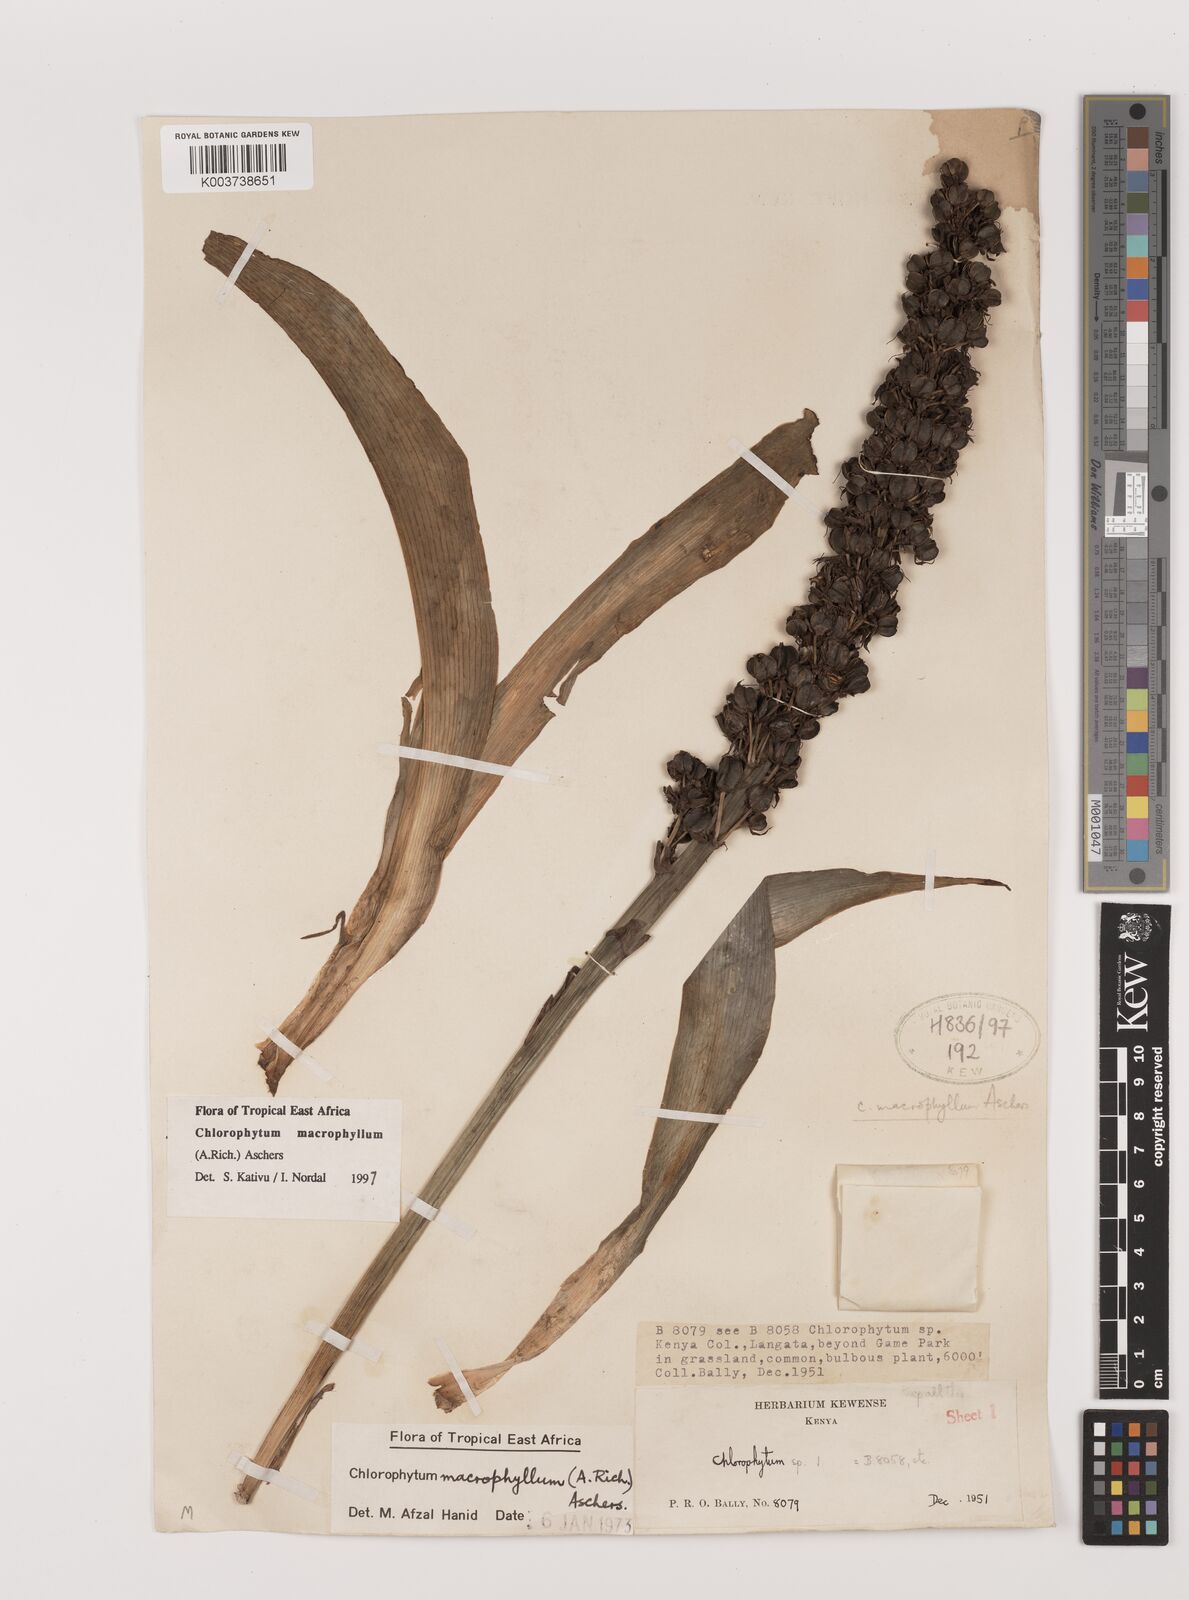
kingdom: Plantae
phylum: Tracheophyta
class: Liliopsida
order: Asparagales
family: Asparagaceae
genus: Chlorophytum
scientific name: Chlorophytum macrophyllum
